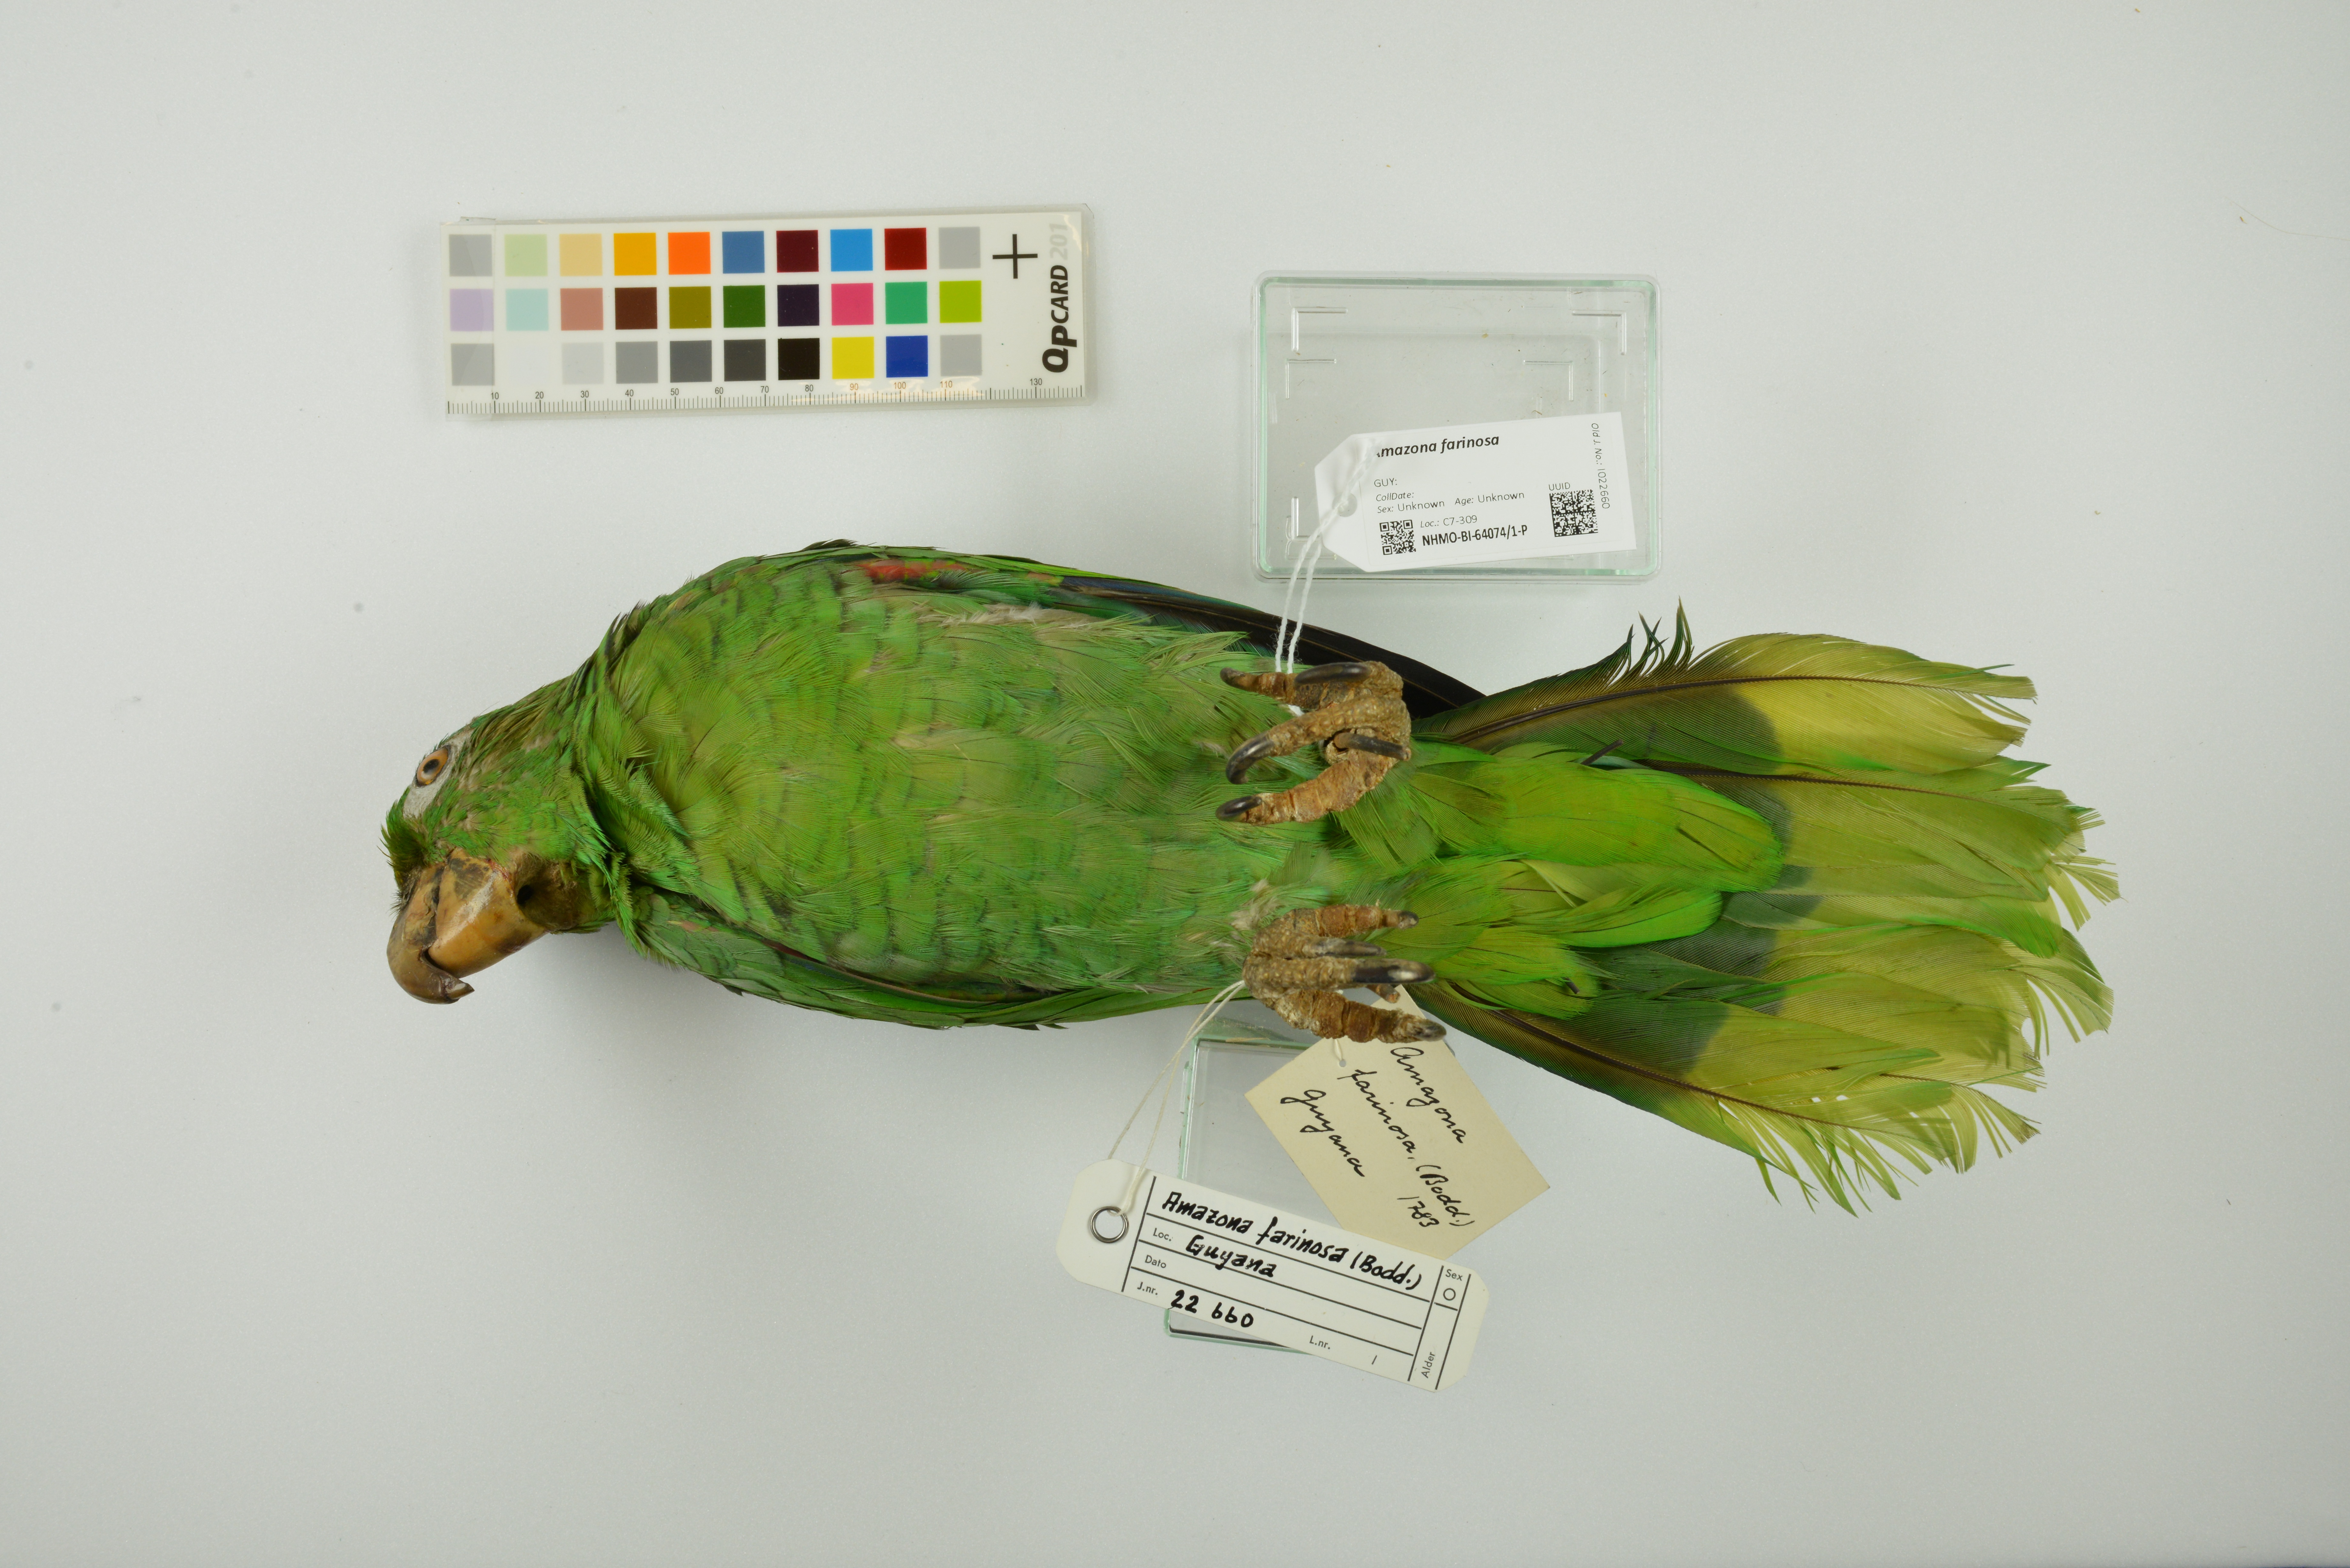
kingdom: Animalia
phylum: Chordata
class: Aves
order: Psittaciformes
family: Psittacidae
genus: Amazona
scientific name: Amazona farinosa
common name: Mealy parrot
